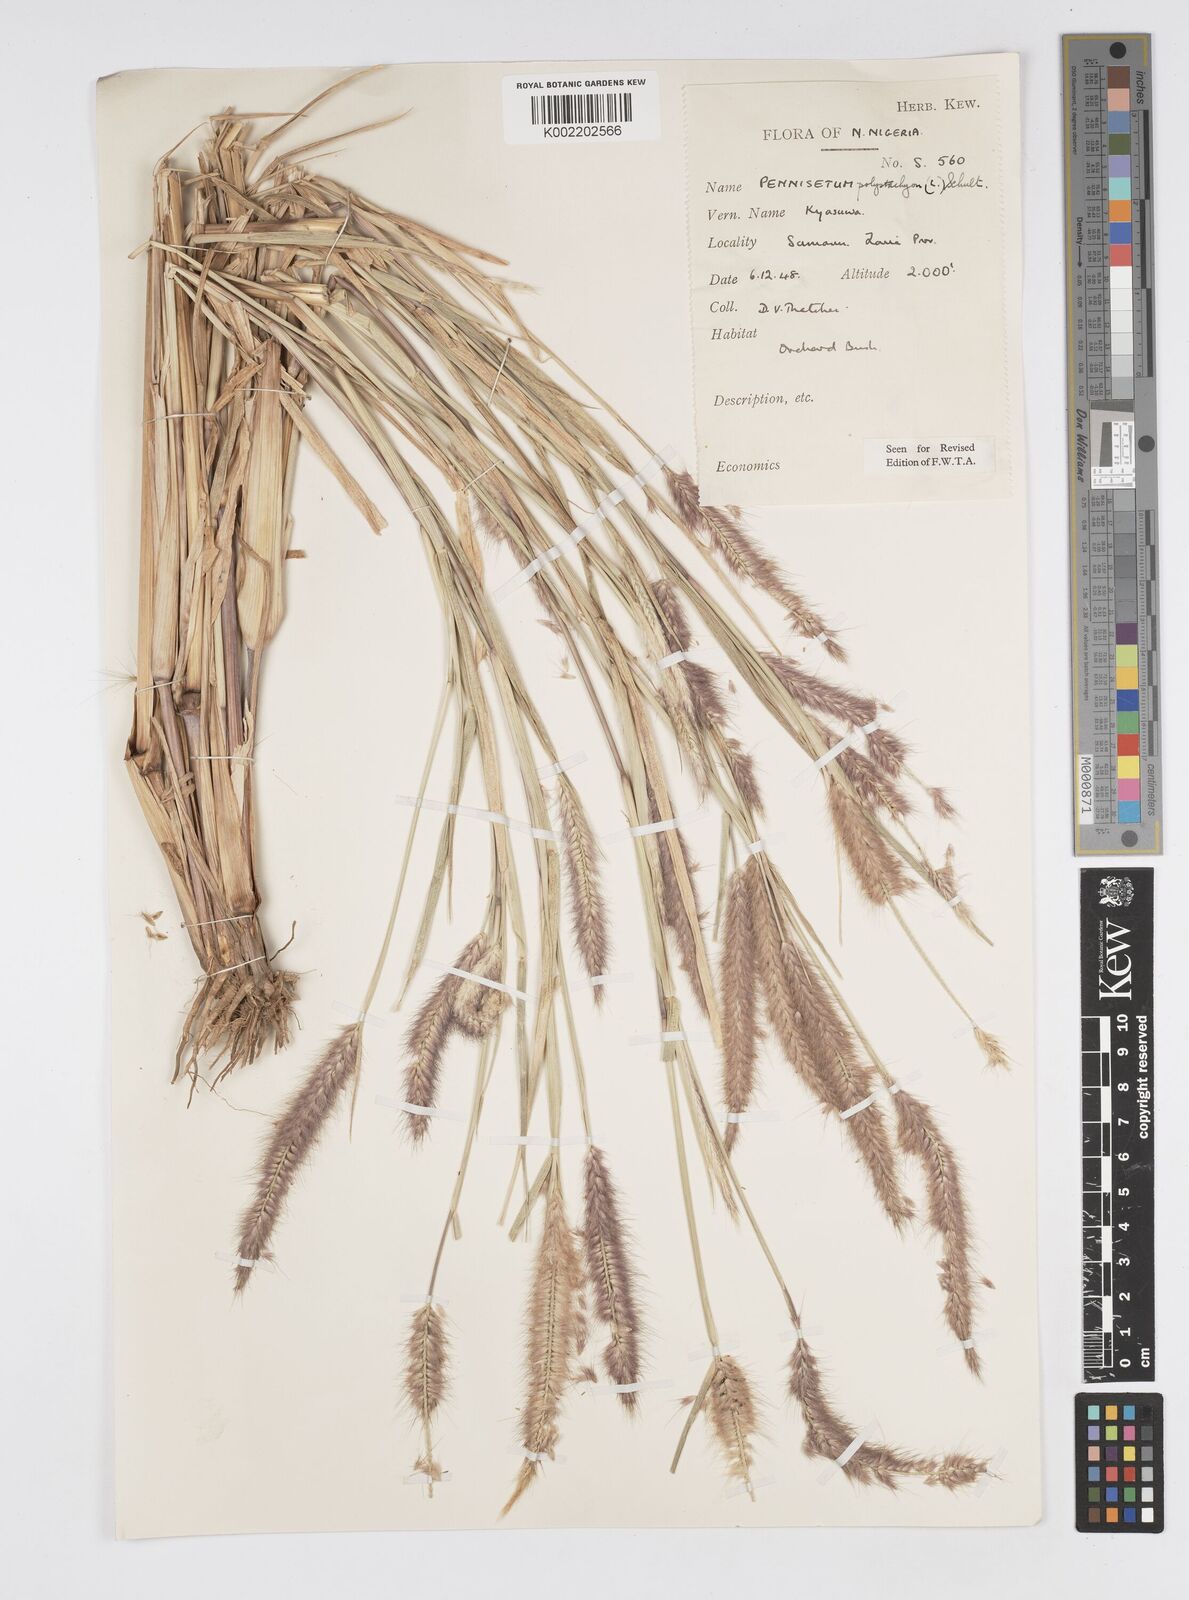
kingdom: Plantae
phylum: Tracheophyta
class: Liliopsida
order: Poales
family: Poaceae
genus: Setaria
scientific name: Setaria parviflora
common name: Knotroot bristle-grass
